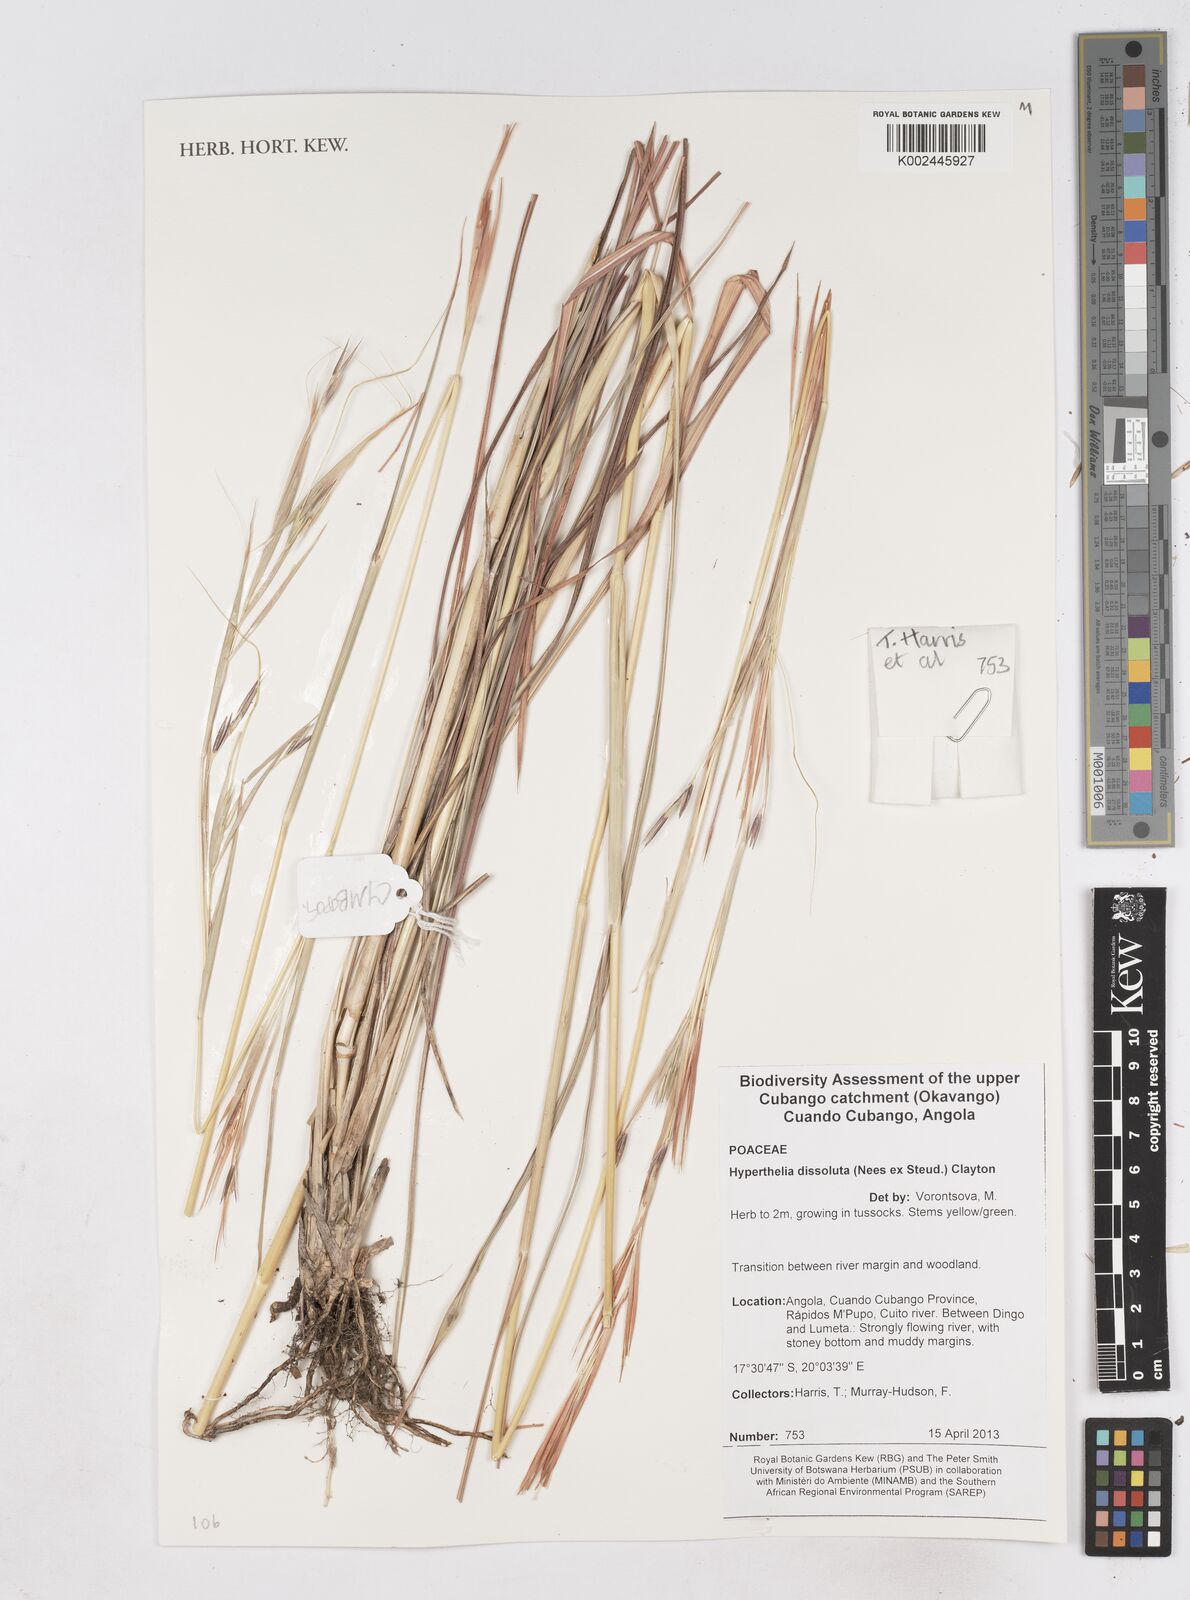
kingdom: Plantae
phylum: Tracheophyta
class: Liliopsida
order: Poales
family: Poaceae
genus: Hyperthelia
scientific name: Hyperthelia dissoluta
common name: Yellow thatching grass
